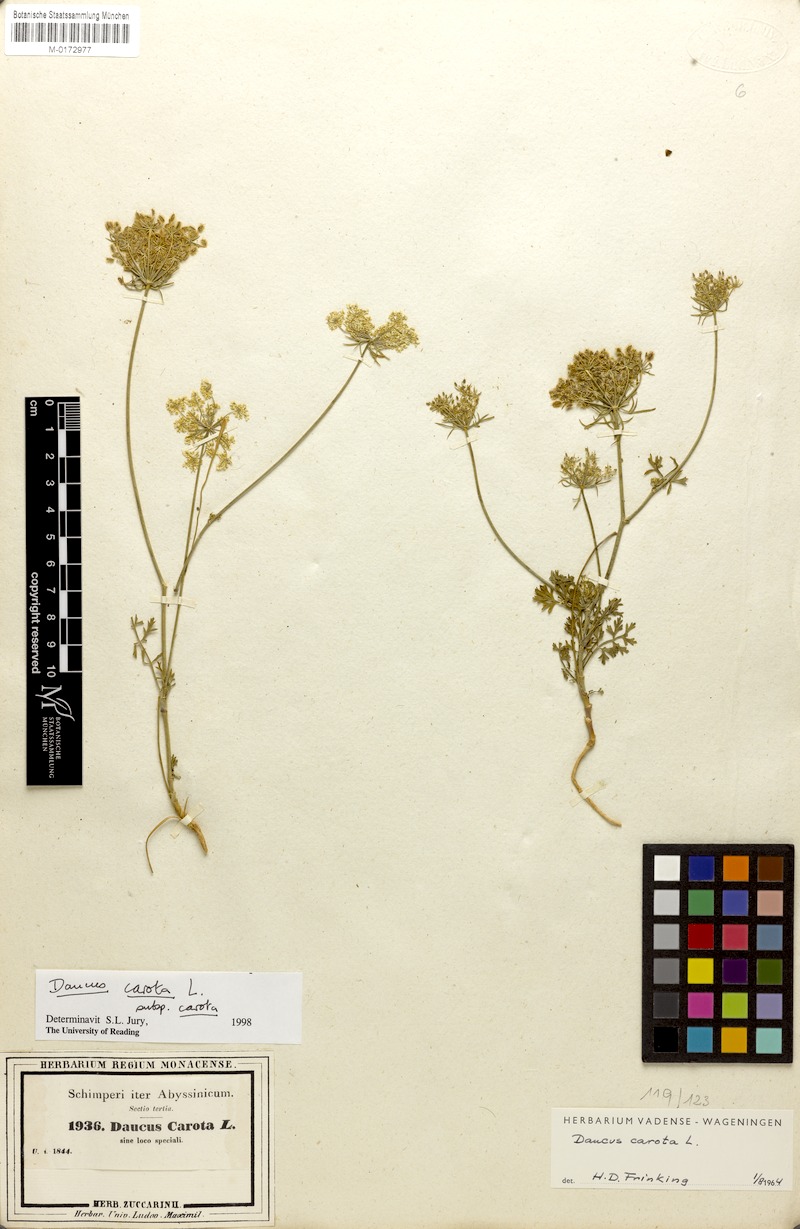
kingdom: Plantae
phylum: Tracheophyta
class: Magnoliopsida
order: Apiales
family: Apiaceae
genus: Daucus
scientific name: Daucus carota
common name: Wild carrot
